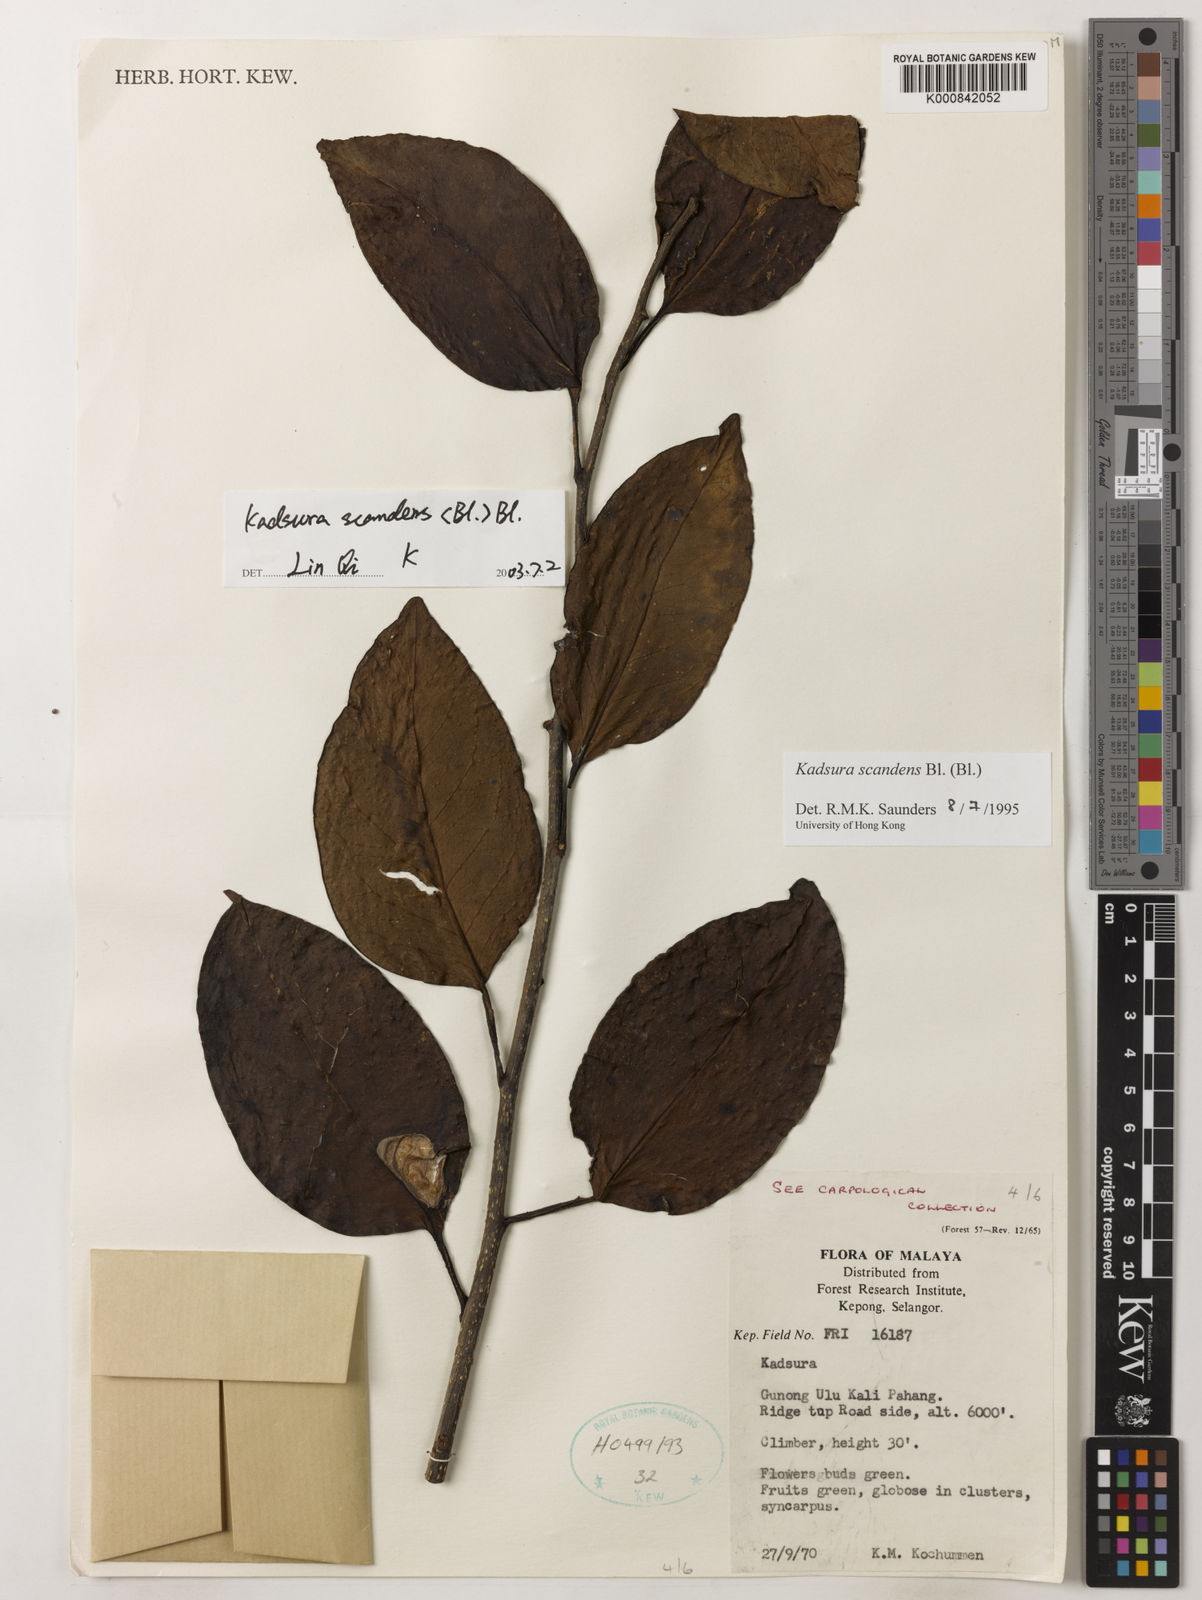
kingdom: Plantae
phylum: Tracheophyta
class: Magnoliopsida
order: Austrobaileyales
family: Schisandraceae
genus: Kadsura
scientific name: Kadsura scandens
